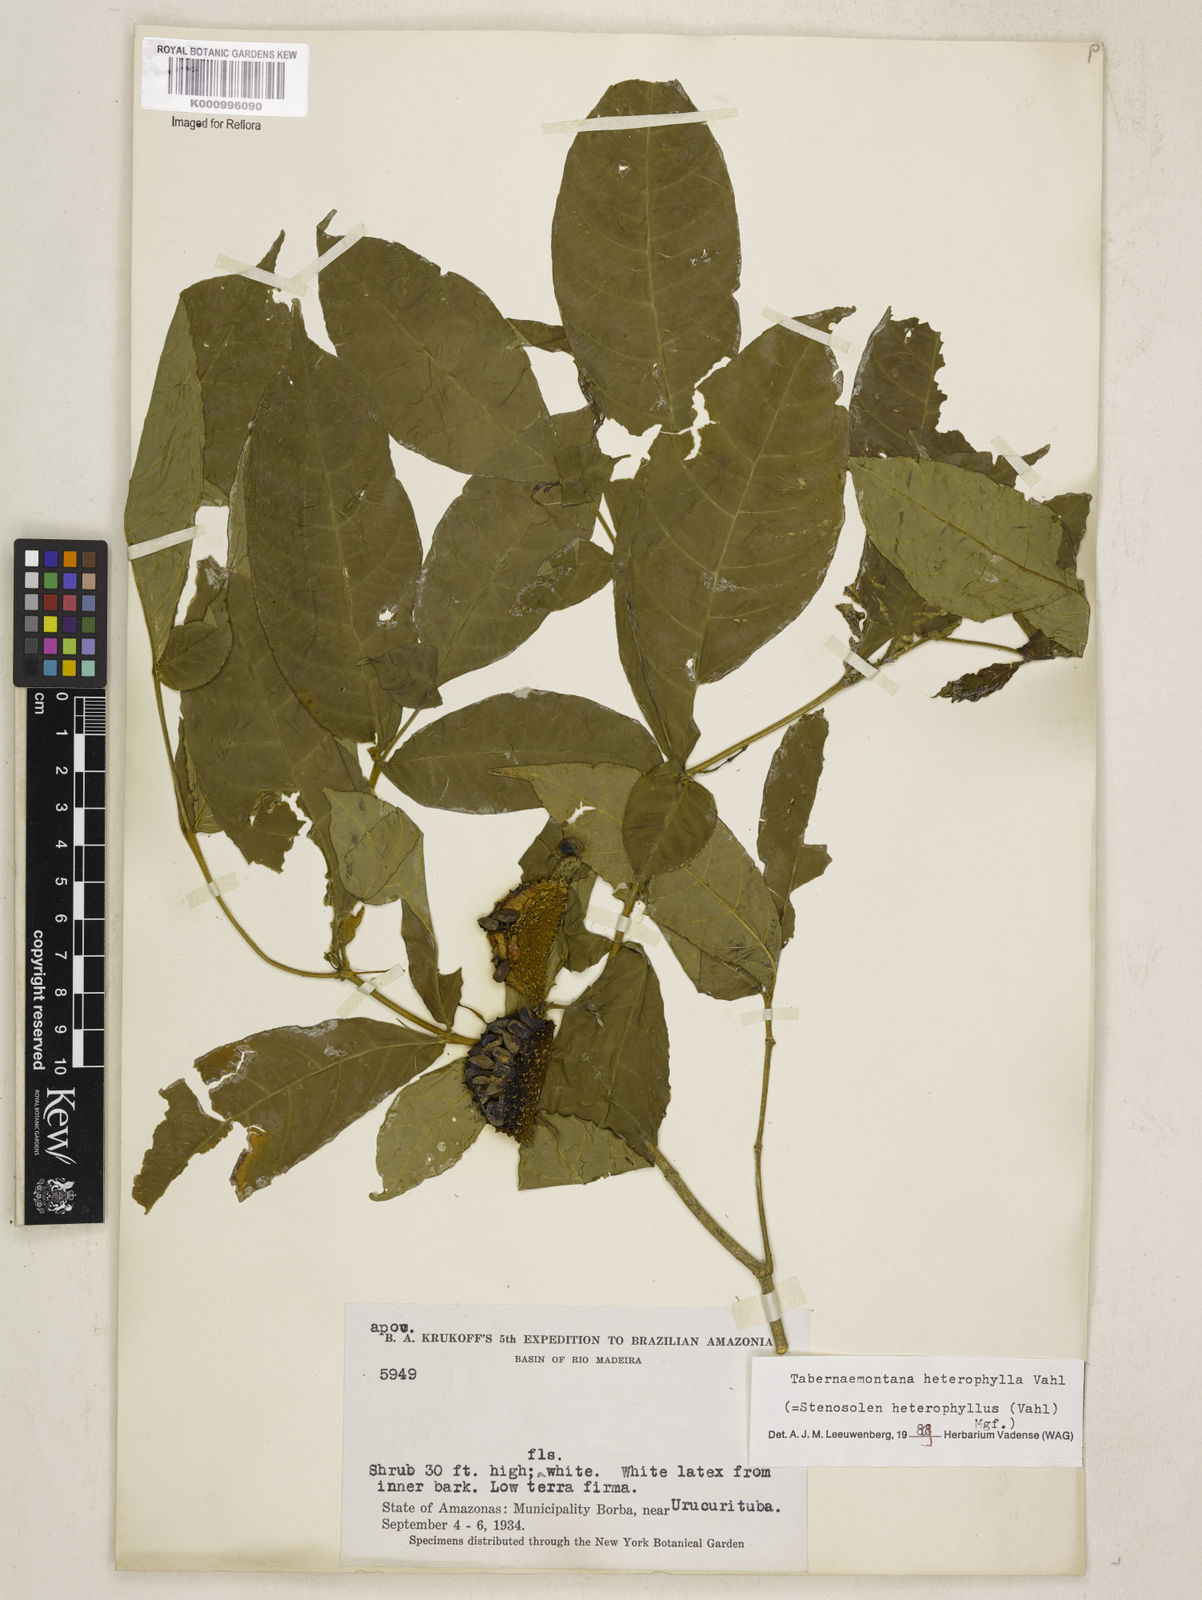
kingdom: Plantae
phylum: Tracheophyta
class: Magnoliopsida
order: Gentianales
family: Apocynaceae
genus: Tabernaemontana
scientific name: Tabernaemontana heterophylla
